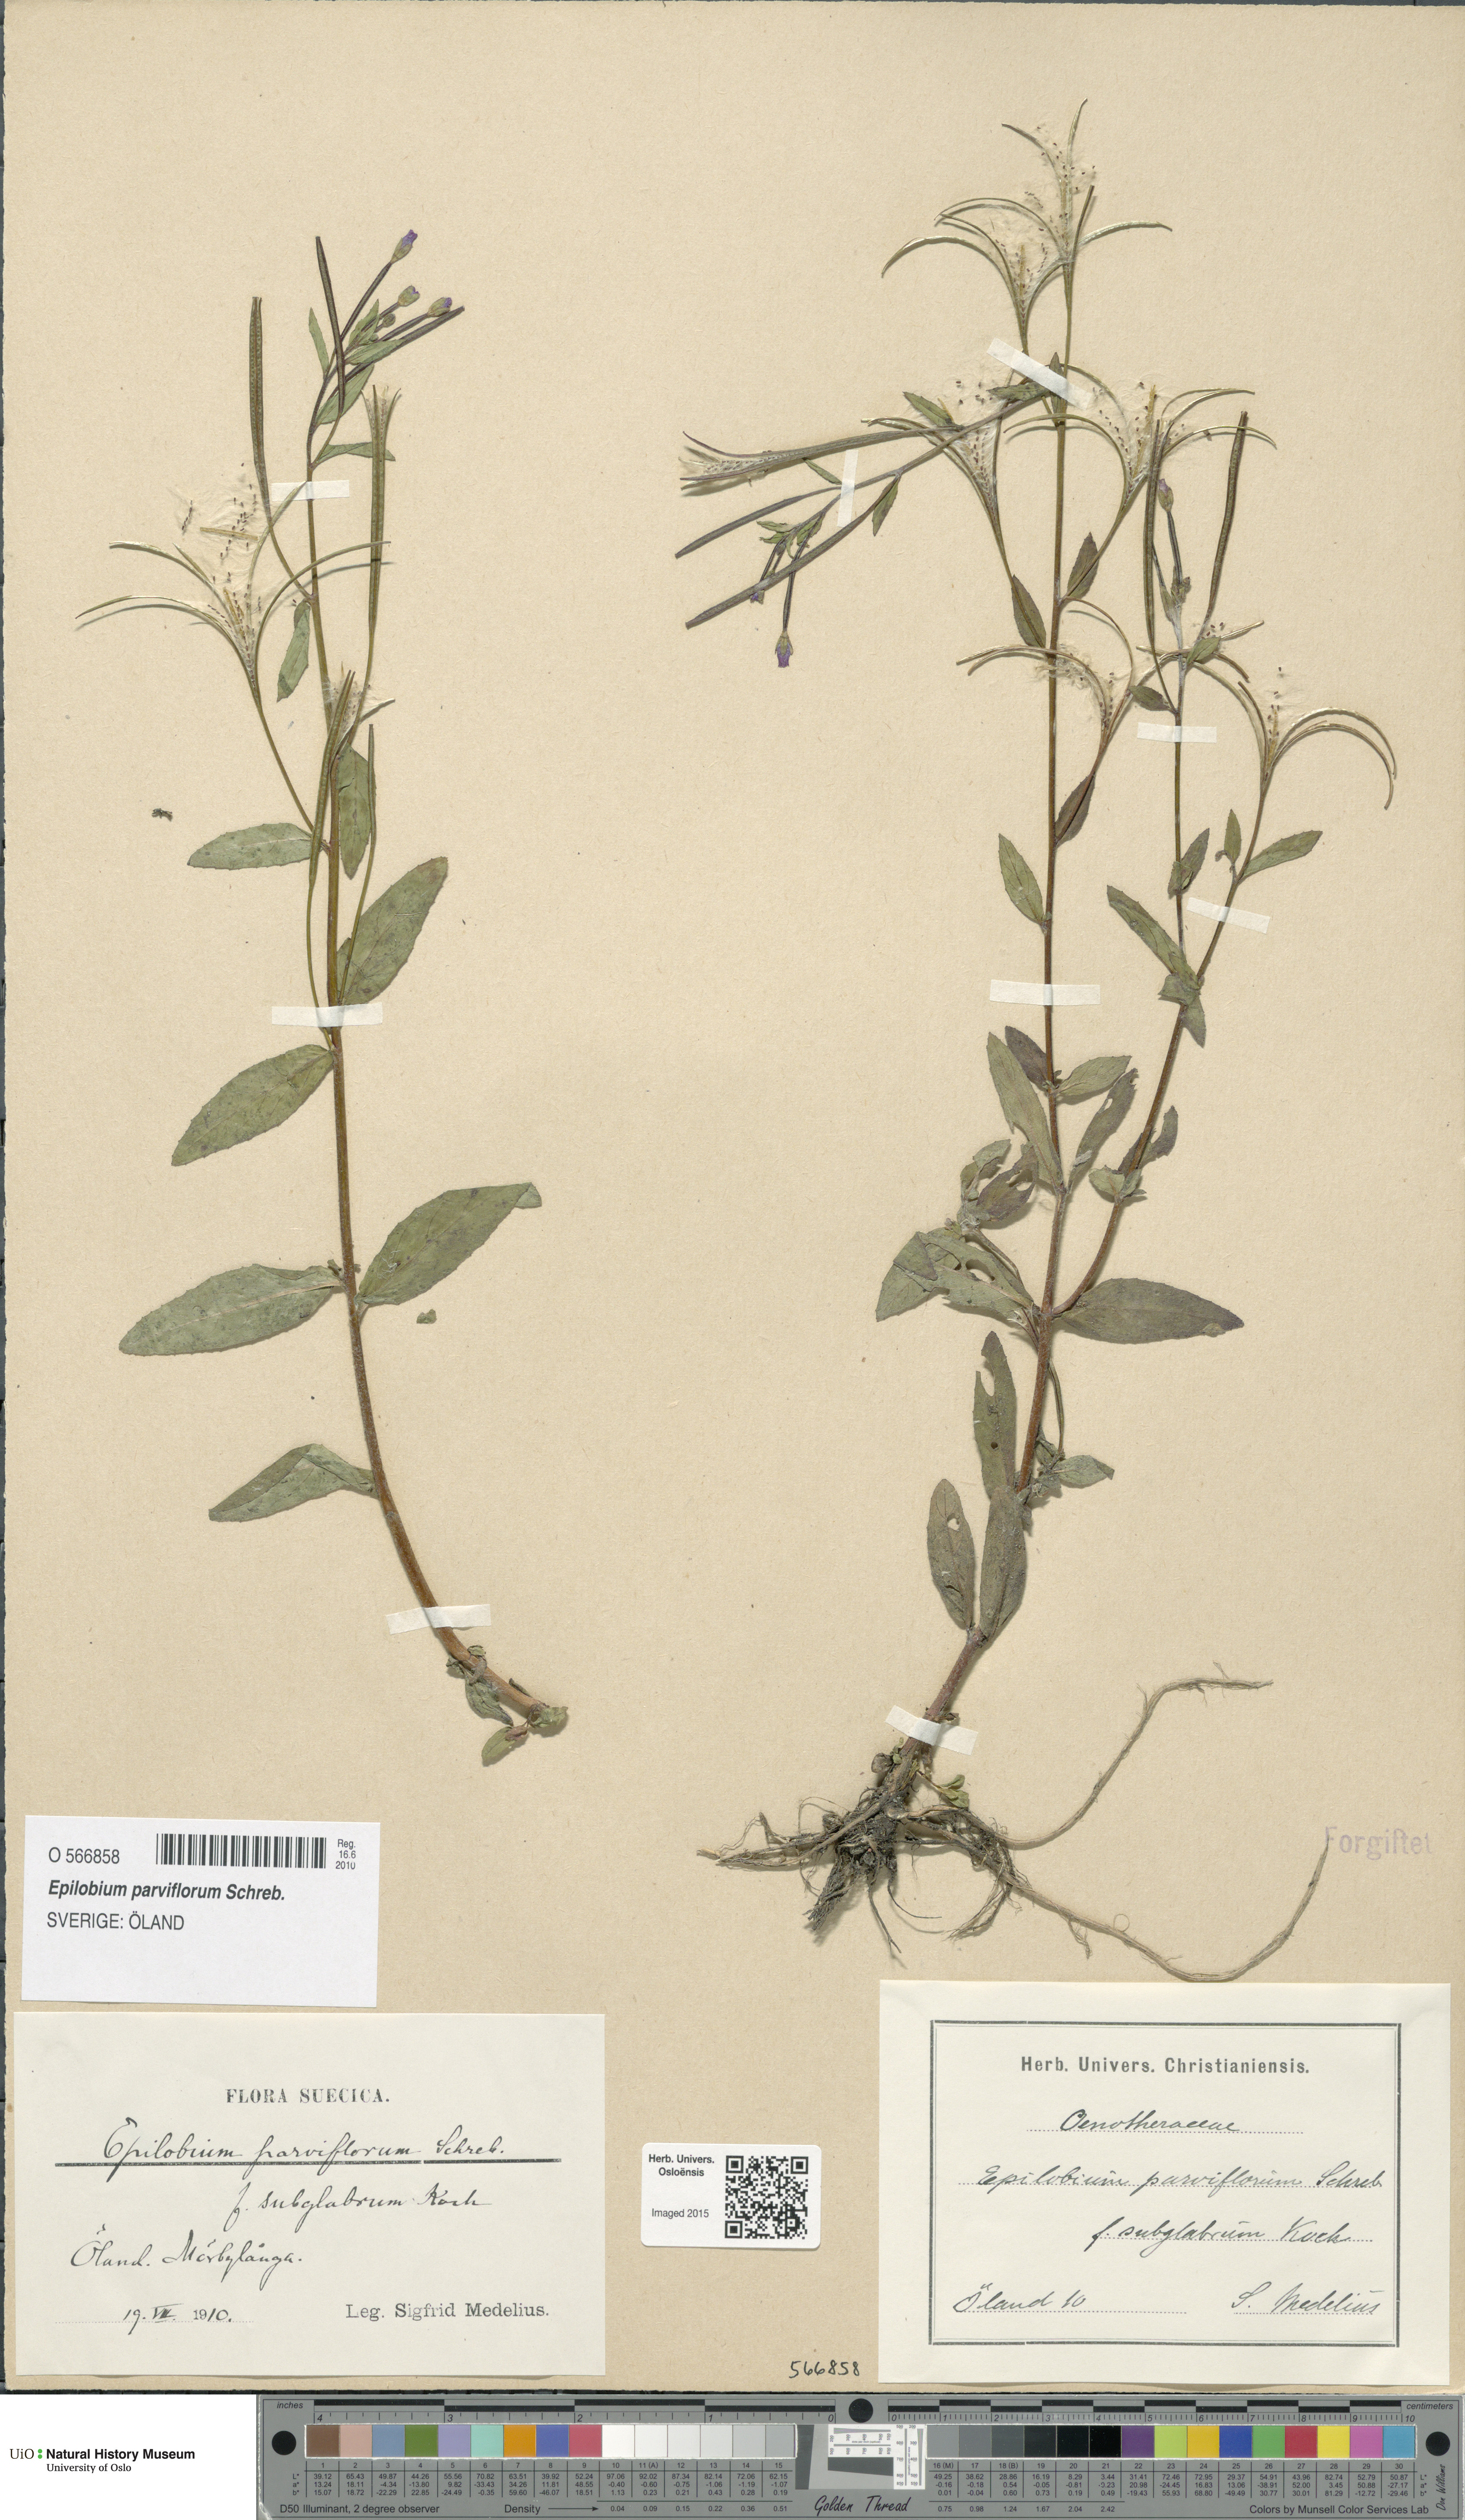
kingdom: Plantae
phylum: Tracheophyta
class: Magnoliopsida
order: Myrtales
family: Onagraceae
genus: Epilobium
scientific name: Epilobium parviflorum
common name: Hoary willowherb
